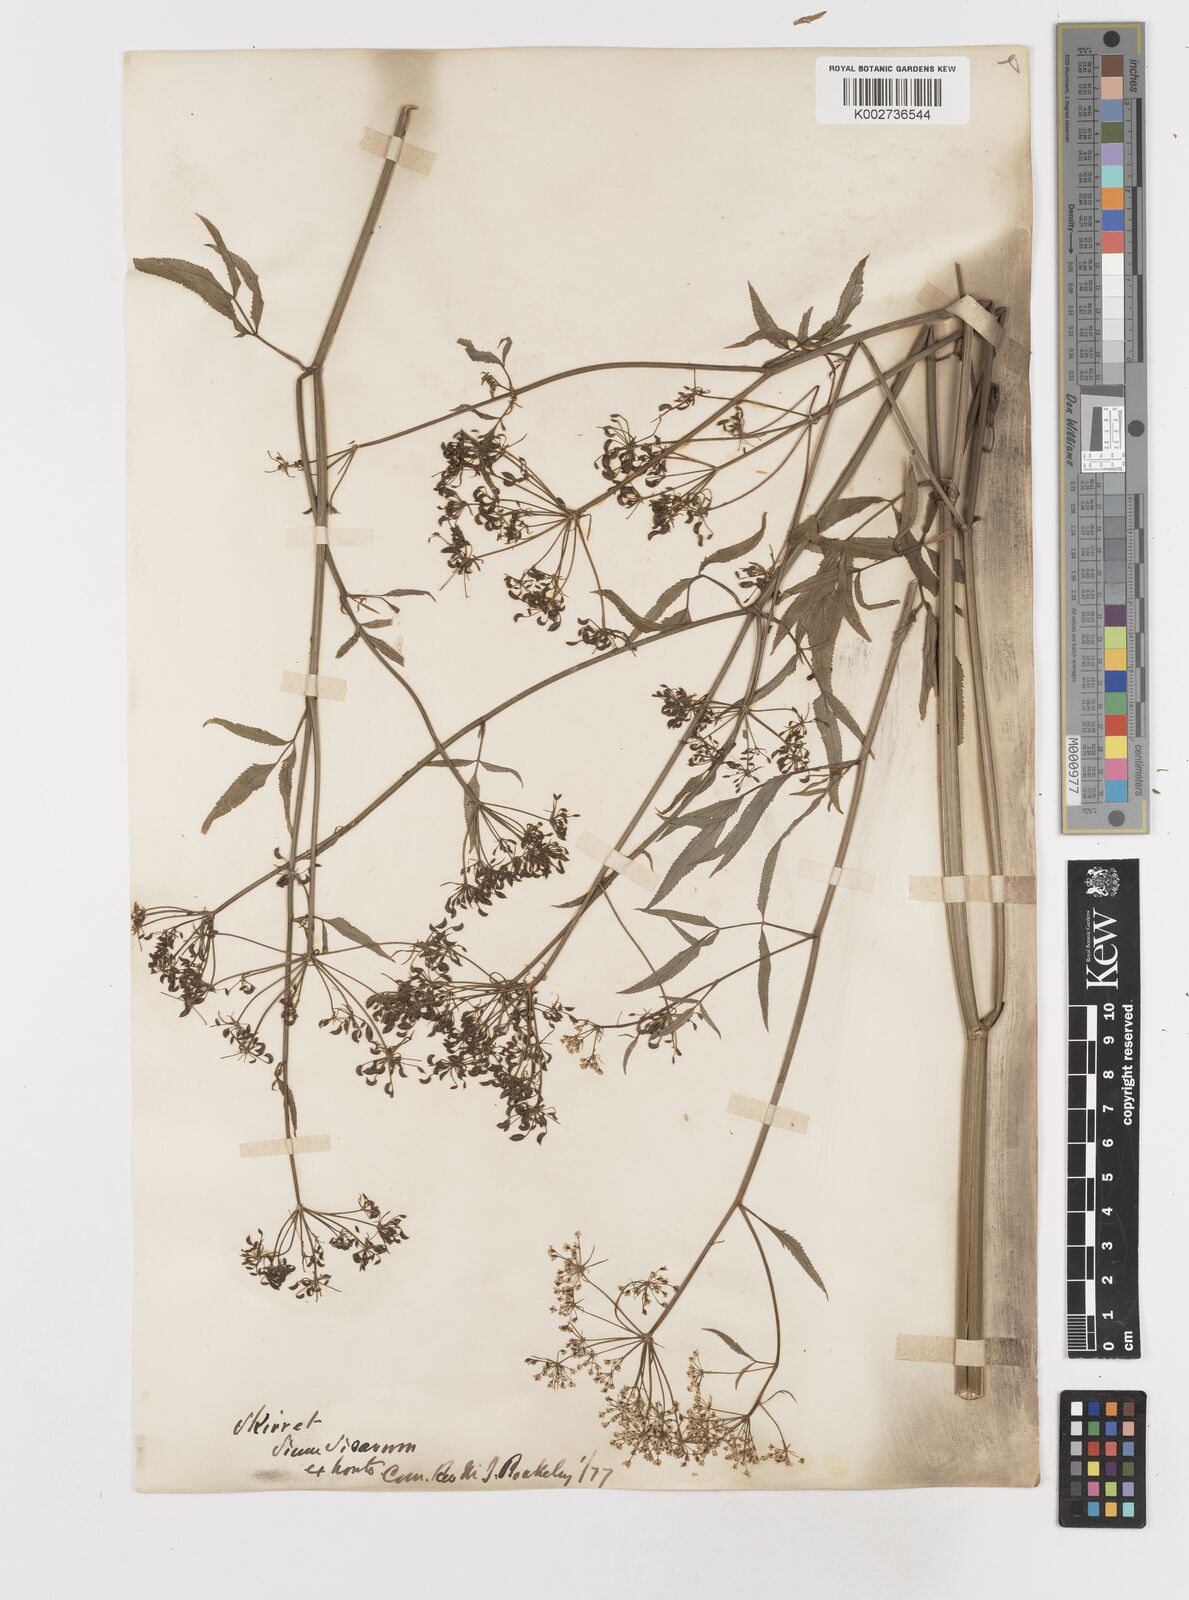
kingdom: Plantae
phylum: Tracheophyta
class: Magnoliopsida
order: Apiales
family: Apiaceae
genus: Sium
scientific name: Sium sisarum
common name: Skirret
